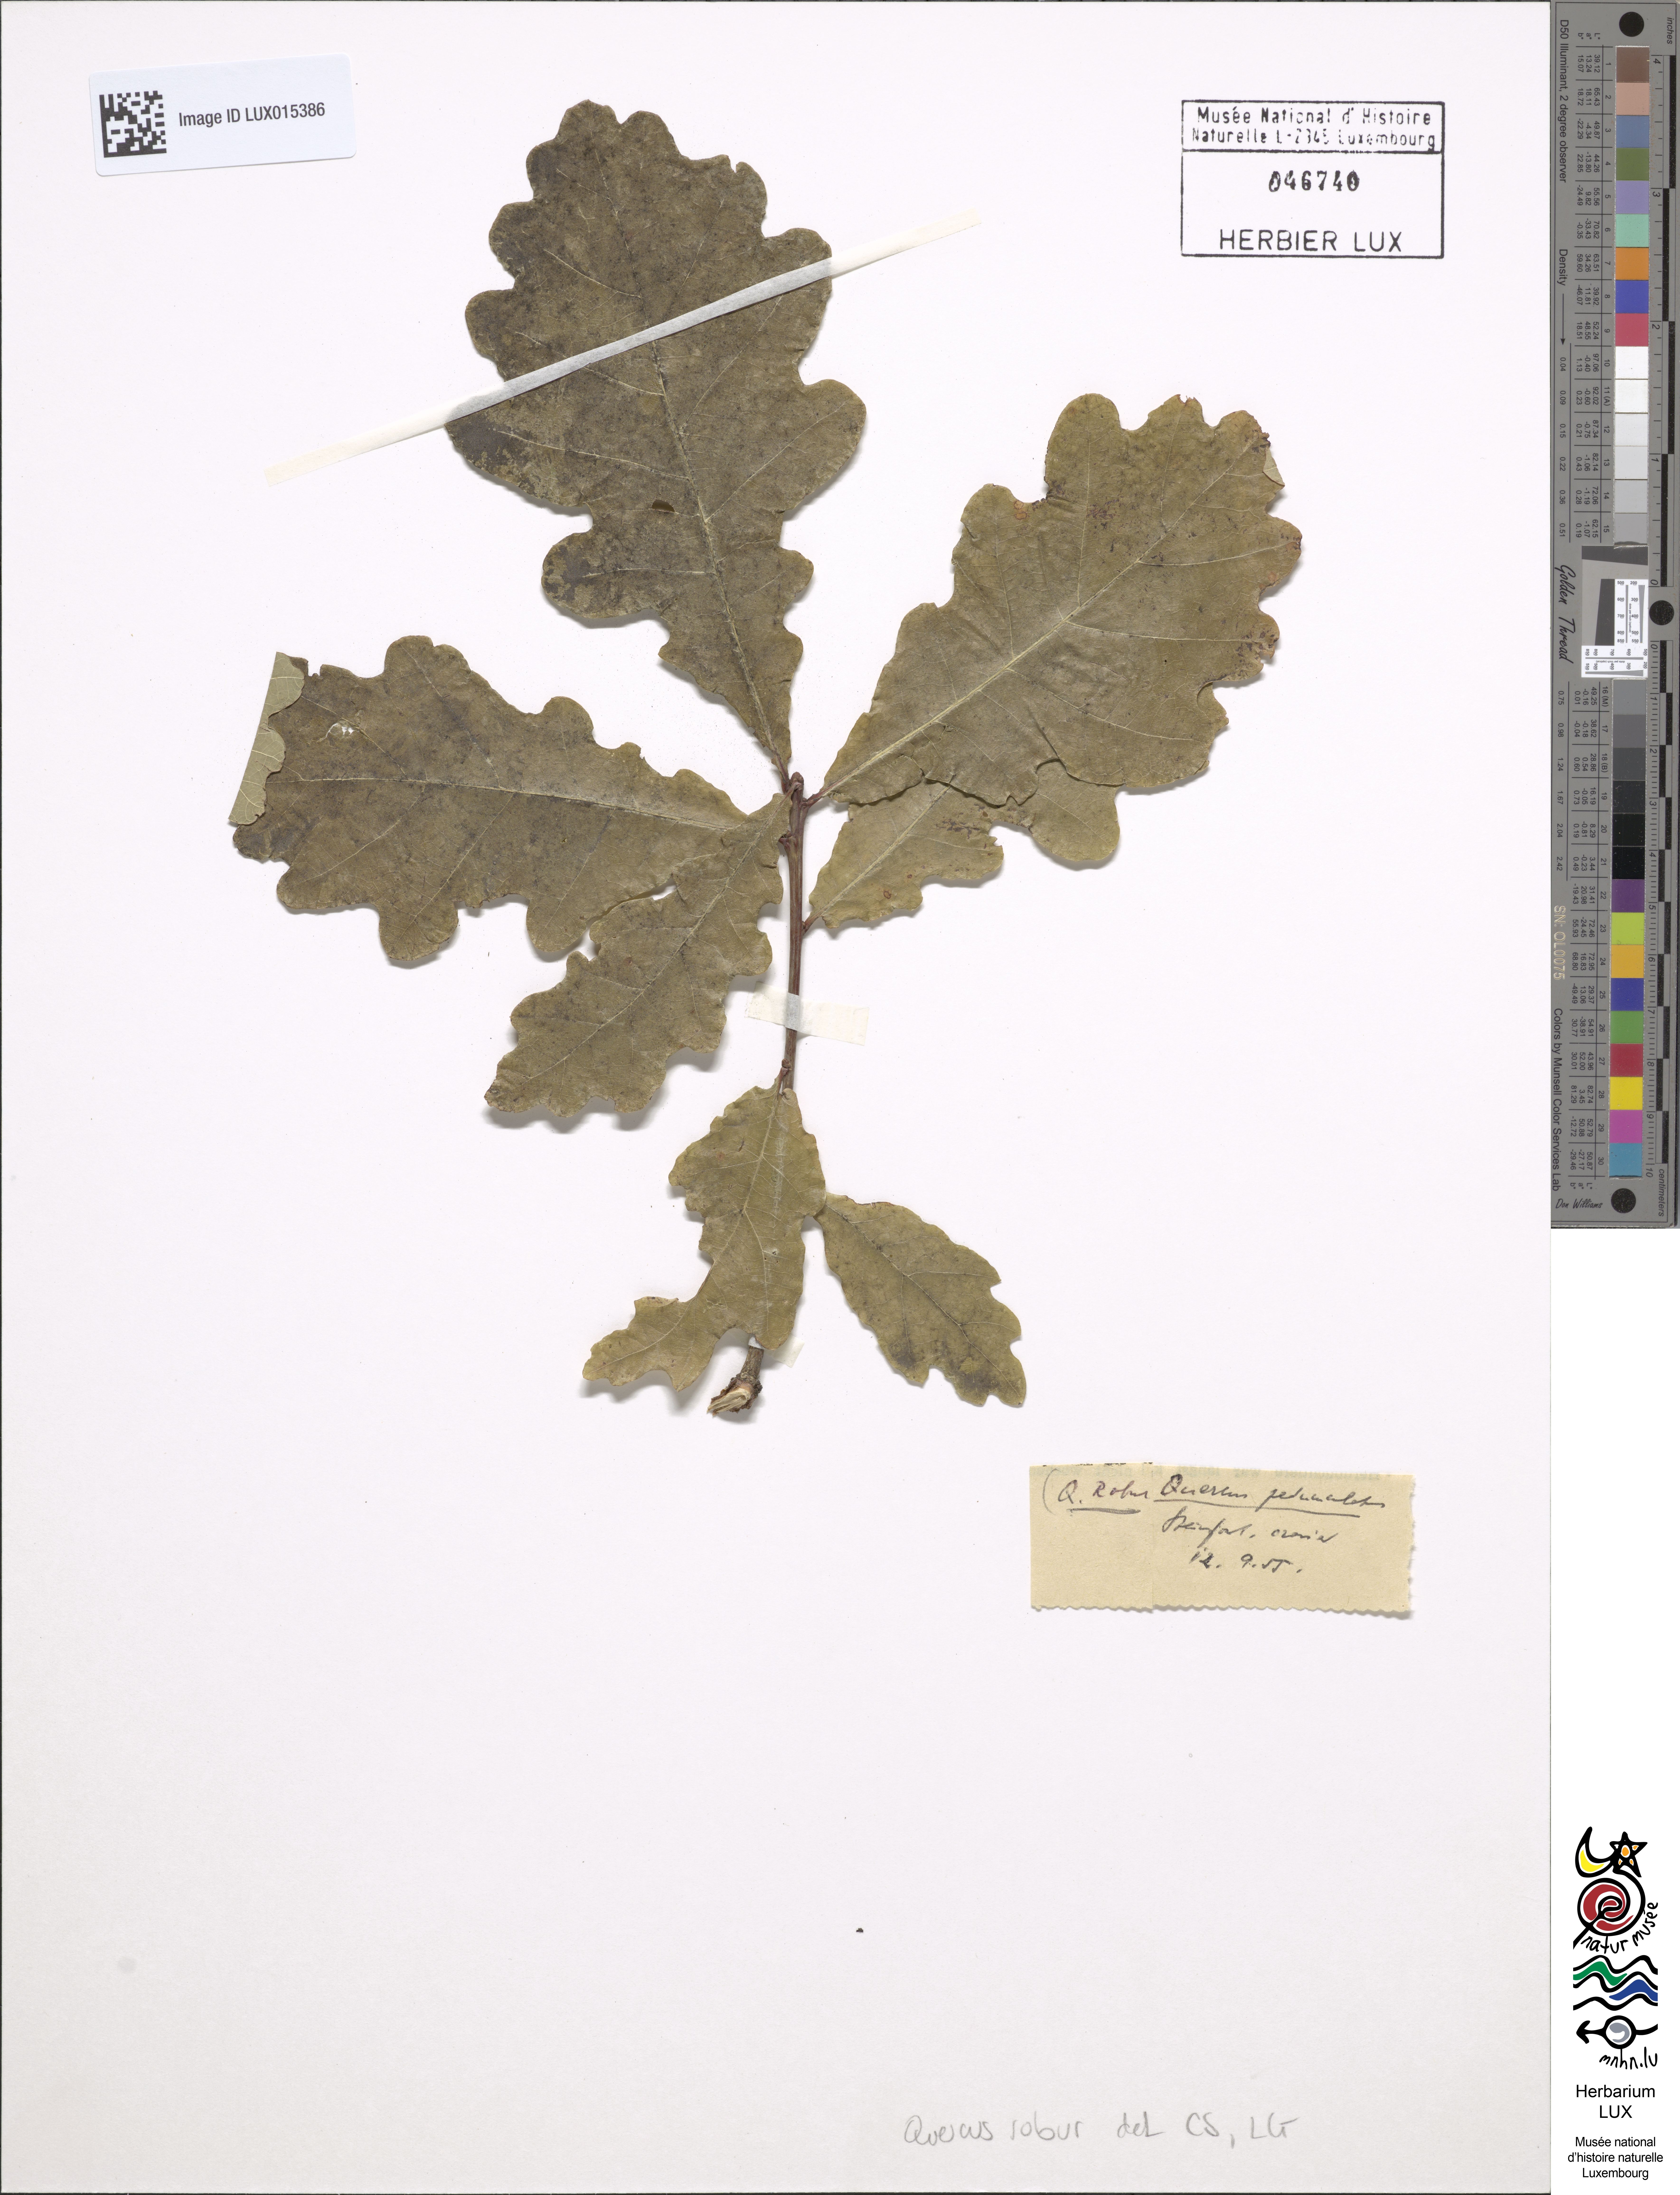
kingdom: Plantae
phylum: Tracheophyta
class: Magnoliopsida
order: Fagales
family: Fagaceae
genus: Quercus
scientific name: Quercus robur
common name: Pedunculate oak
